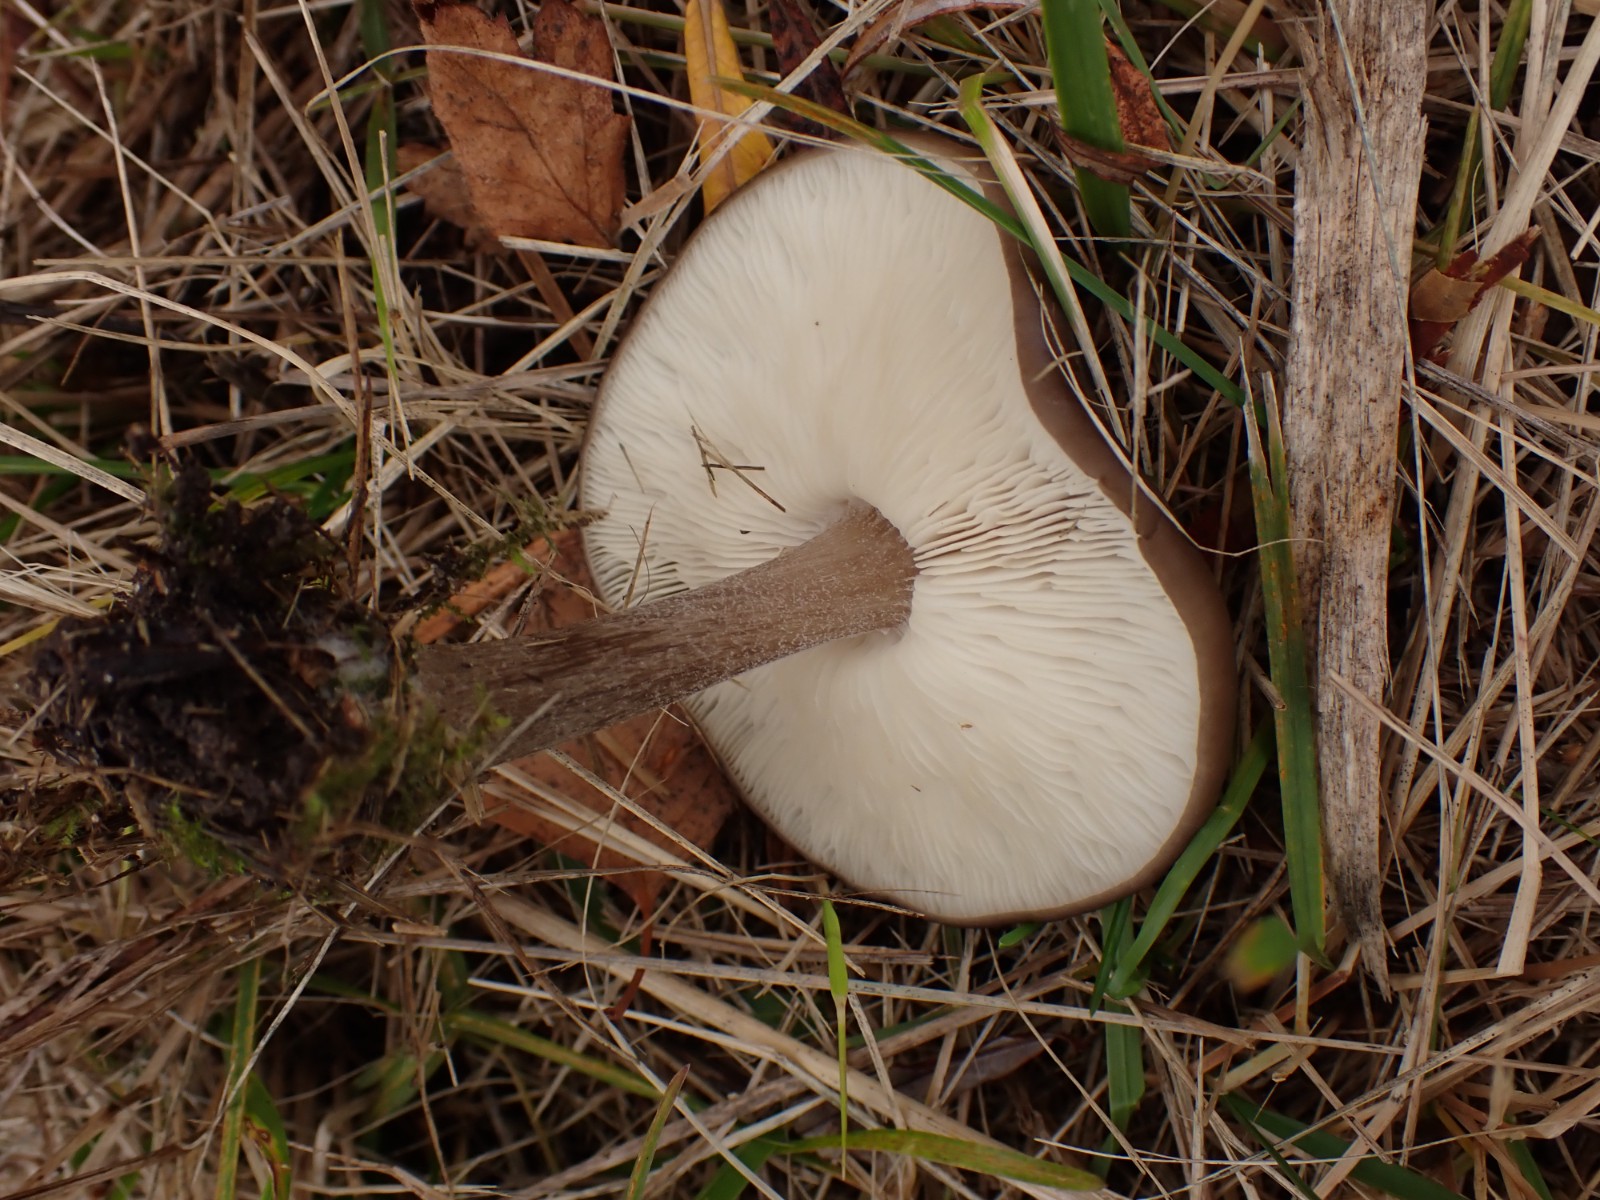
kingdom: Fungi
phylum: Basidiomycota
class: Agaricomycetes
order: Agaricales
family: Tricholomataceae
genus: Melanoleuca
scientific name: Melanoleuca
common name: munkehat
